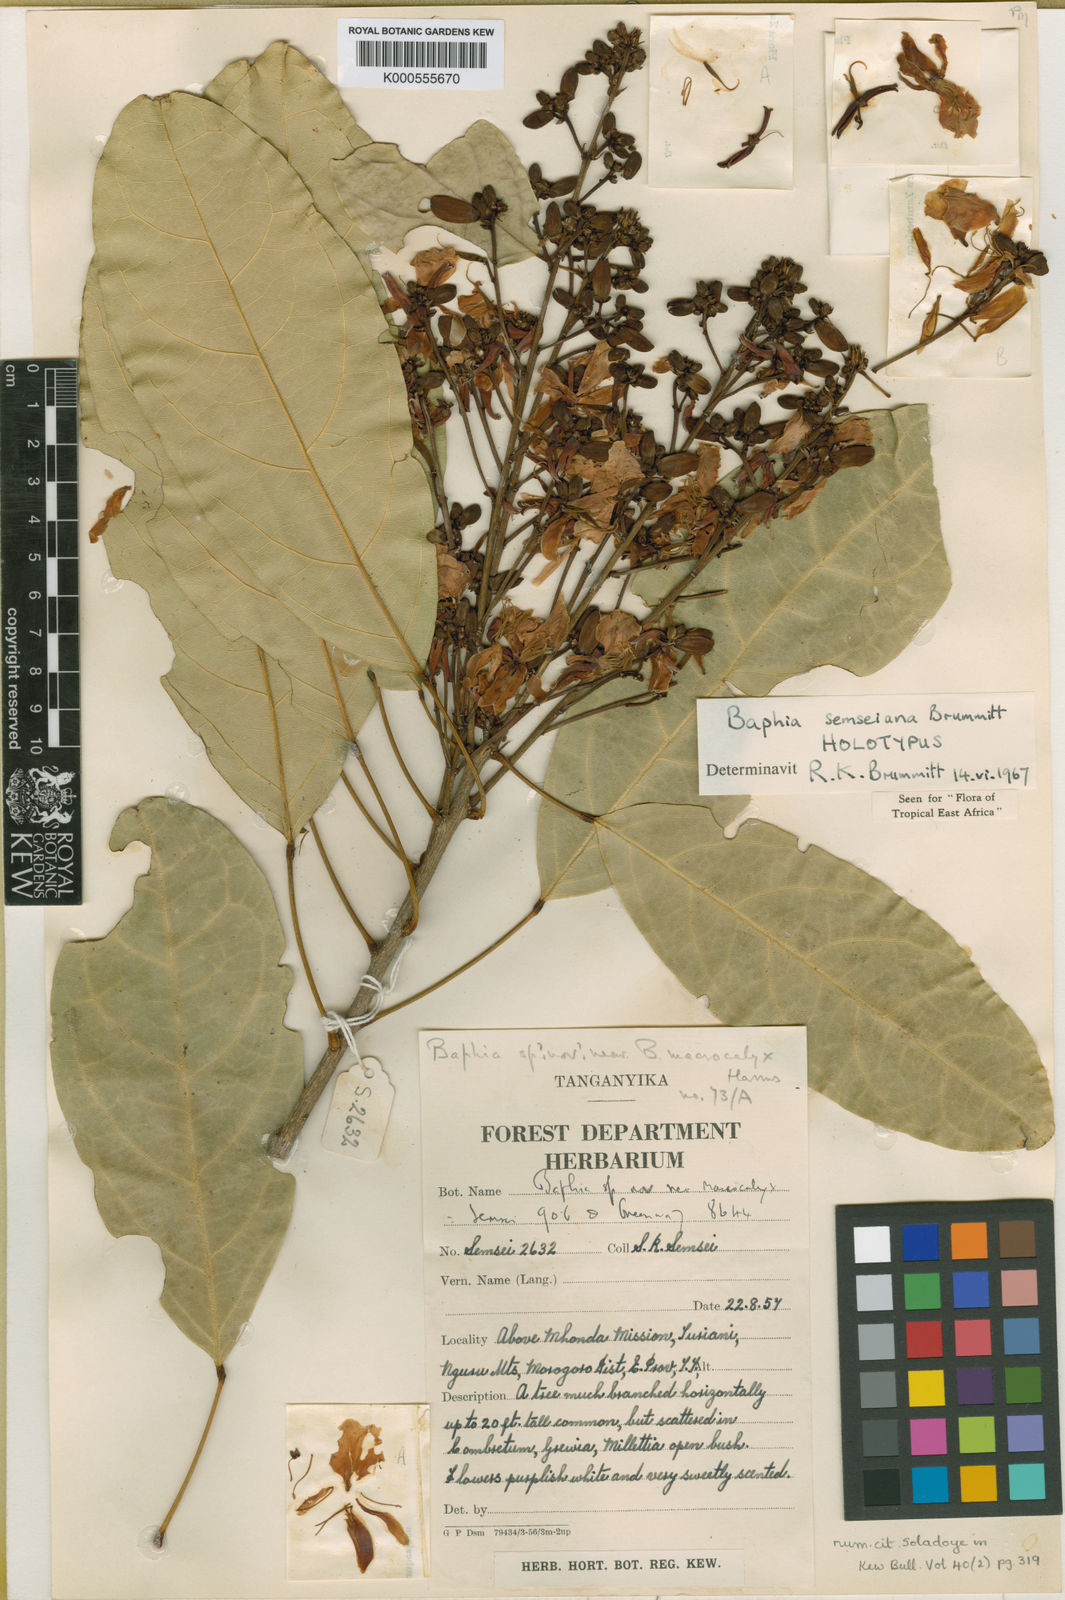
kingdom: Plantae
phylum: Tracheophyta
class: Magnoliopsida
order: Fabales
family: Fabaceae
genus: Baphia
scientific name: Baphia
